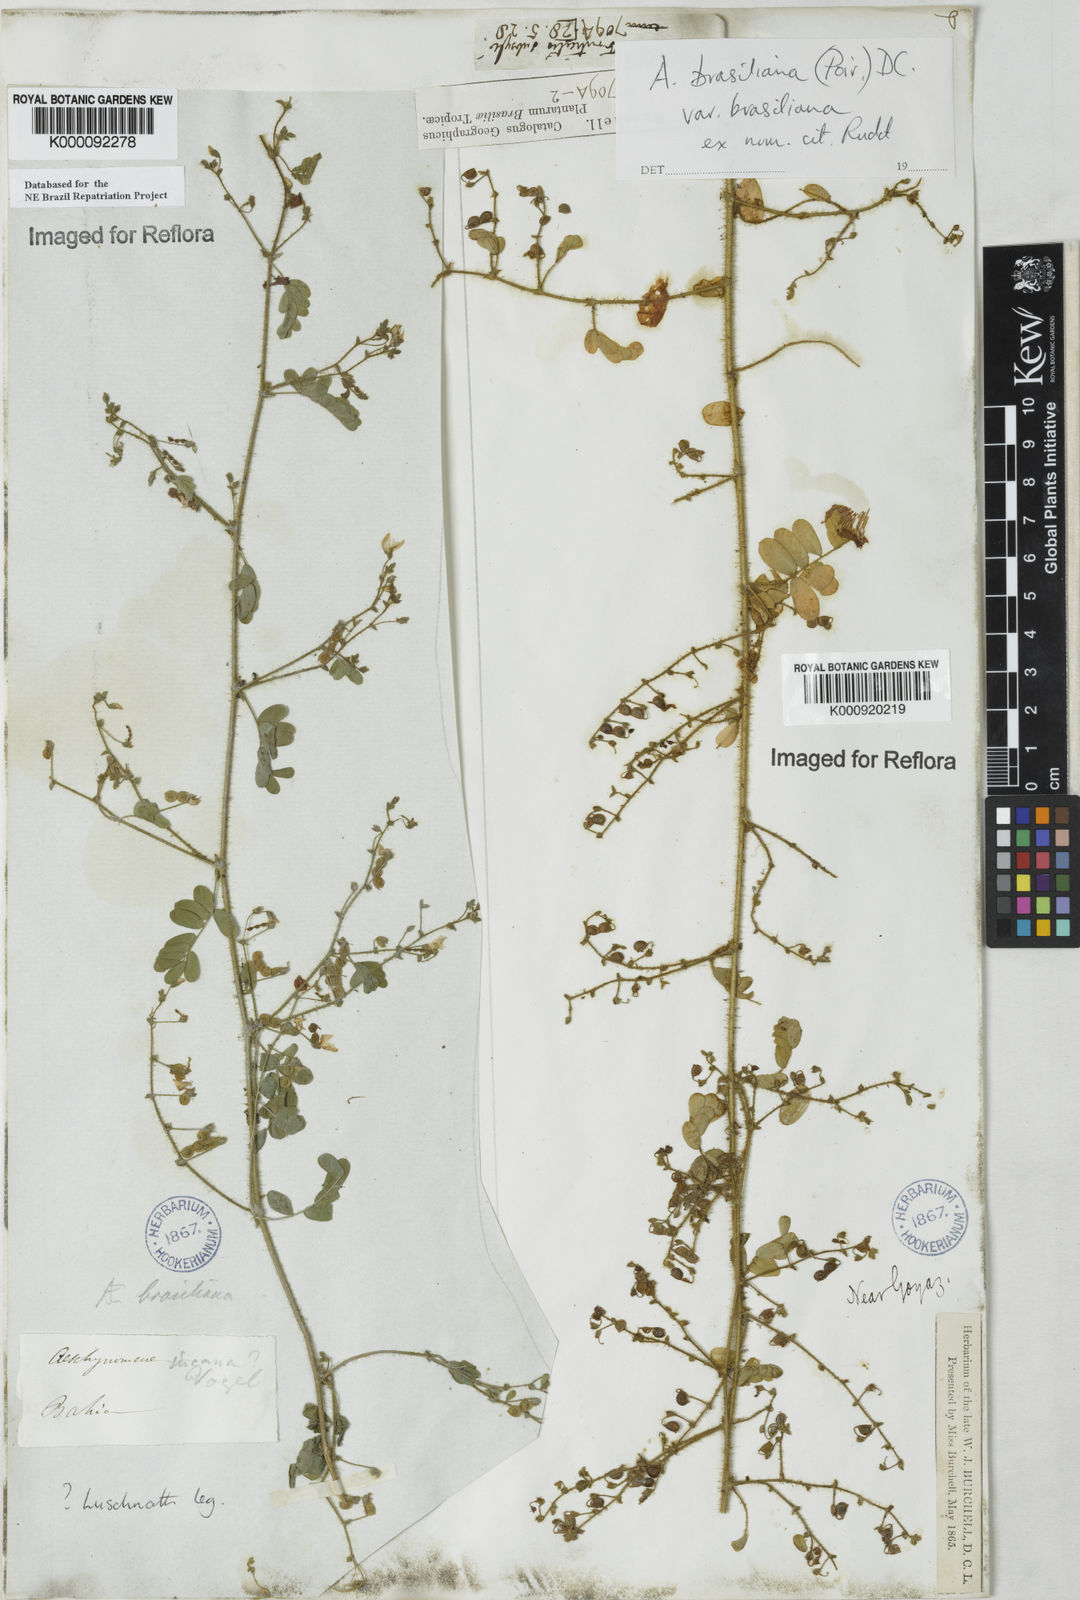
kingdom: Plantae
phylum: Tracheophyta
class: Magnoliopsida
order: Fabales
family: Fabaceae
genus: Ctenodon
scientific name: Ctenodon brasilianus
